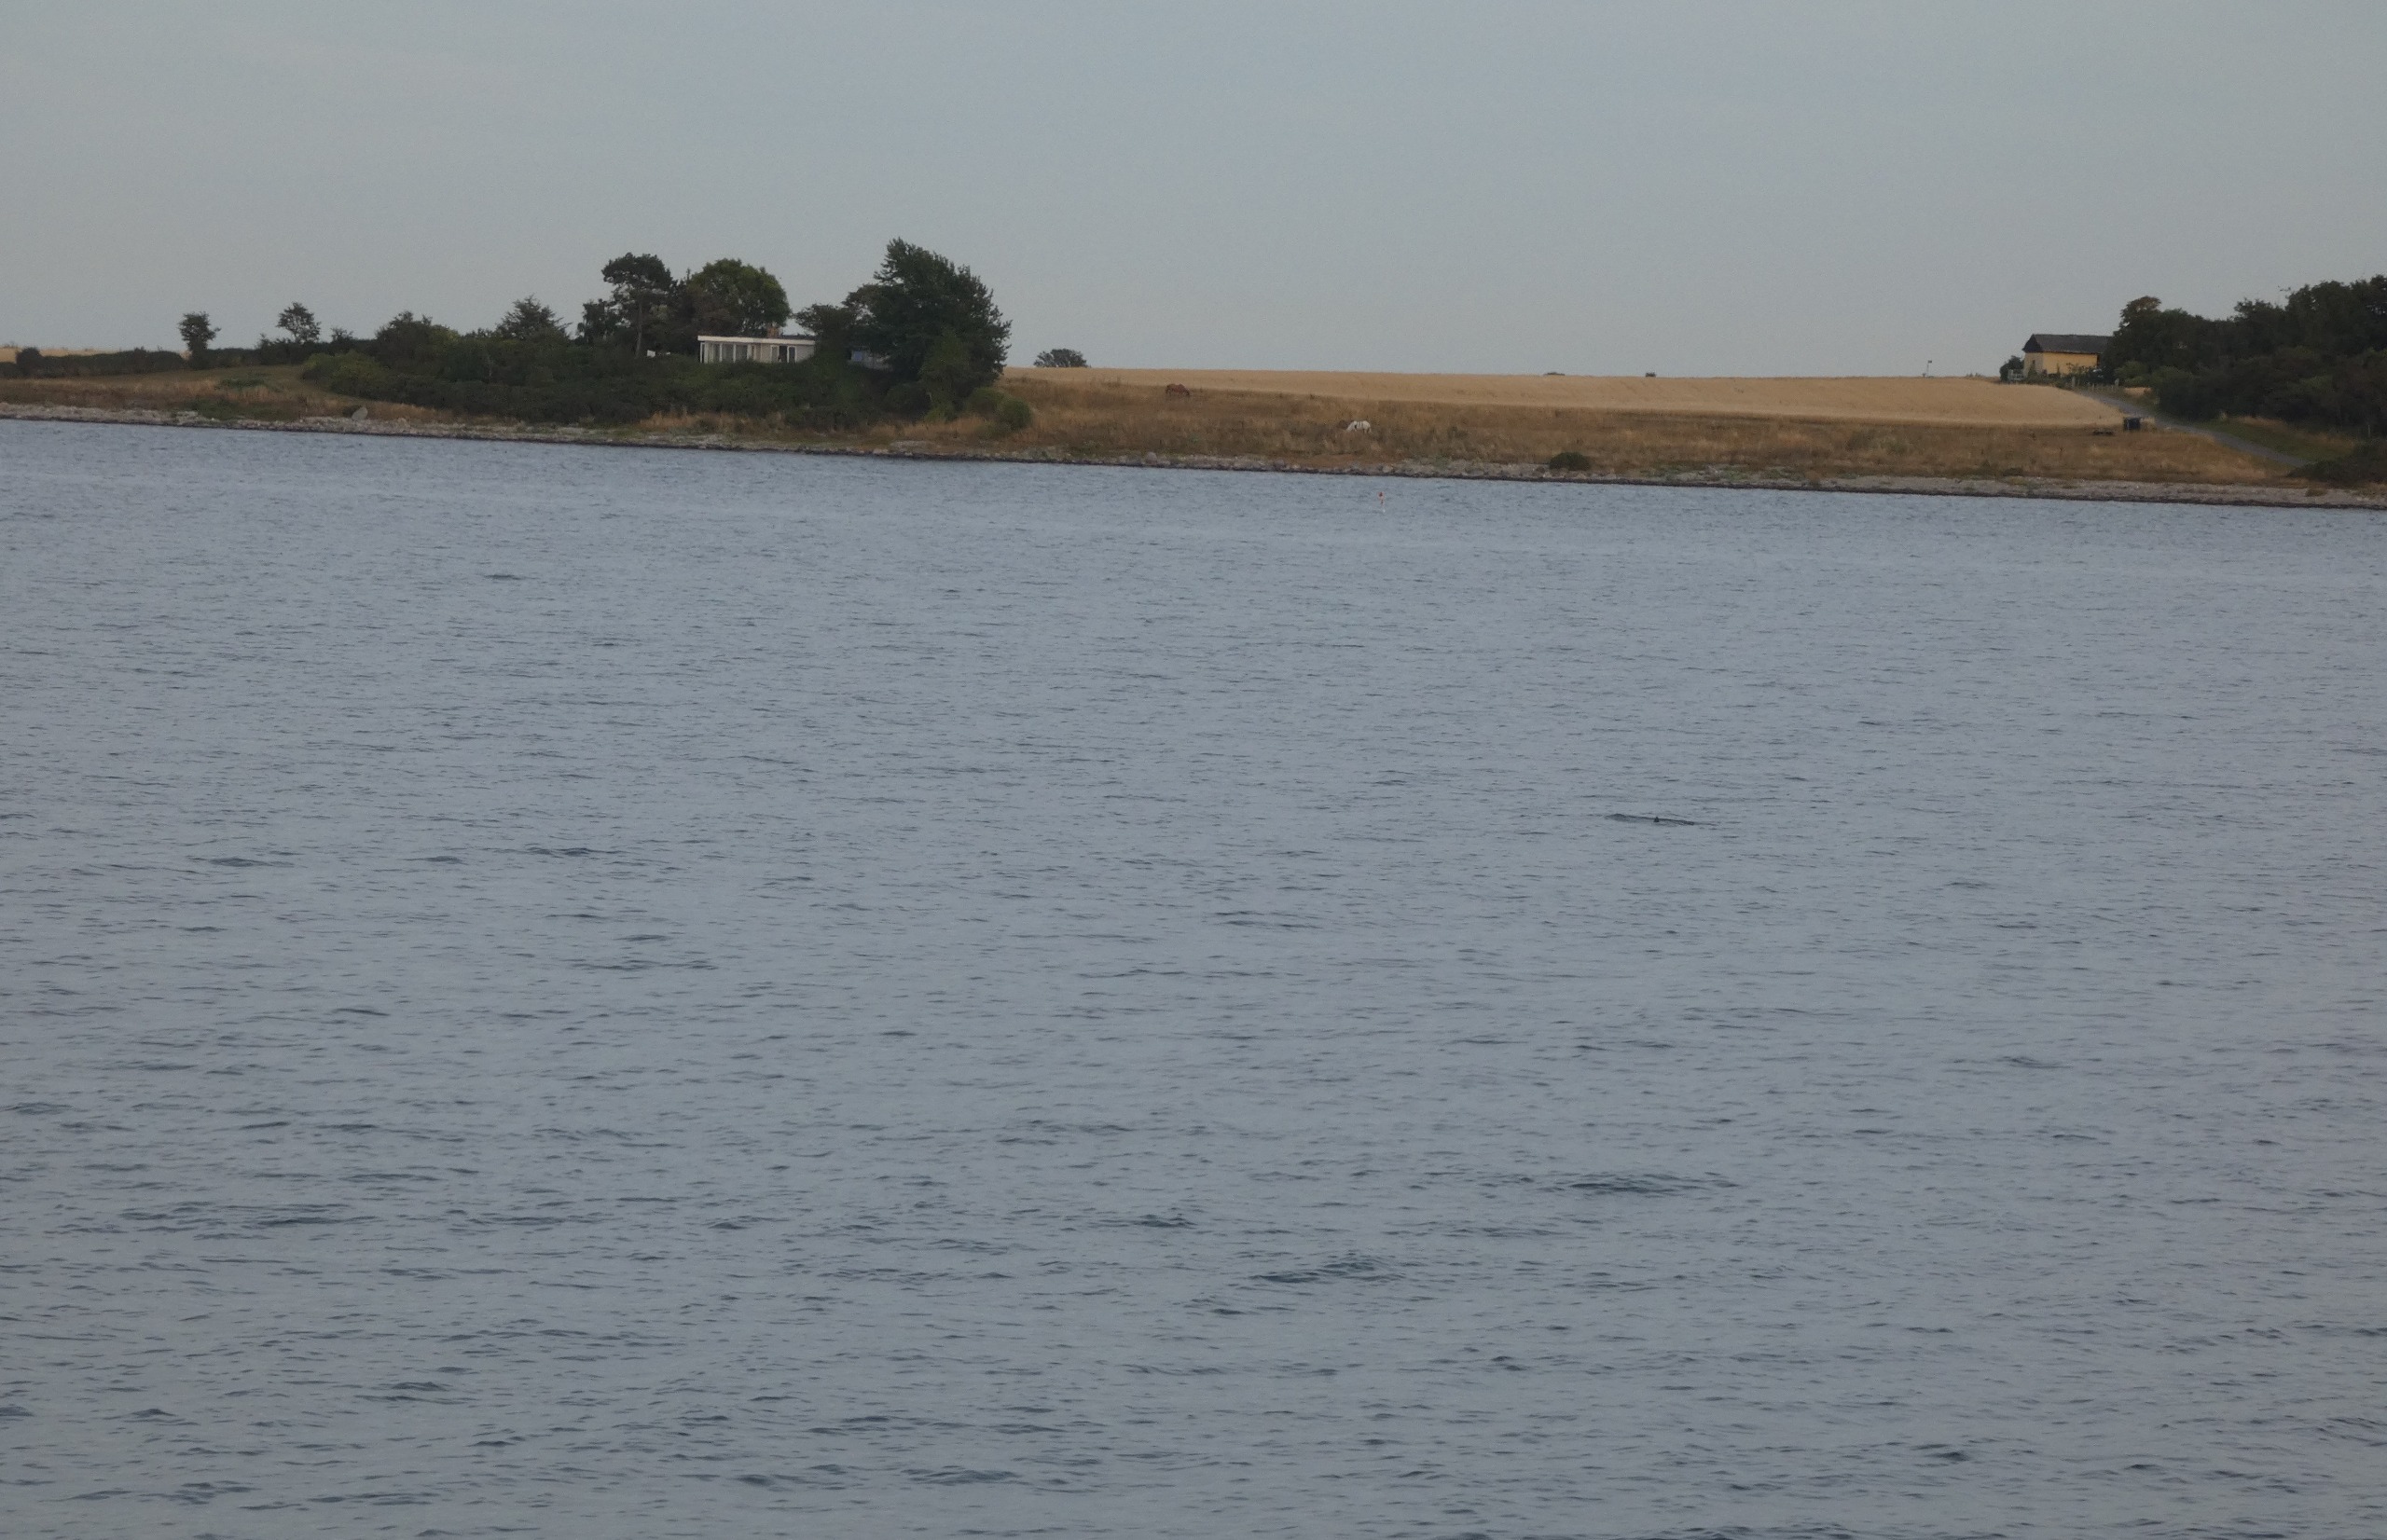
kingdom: Animalia
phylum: Chordata
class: Mammalia
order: Cetacea
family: Phocoenidae
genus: Phocoena
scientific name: Phocoena phocoena
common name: Marsvin
